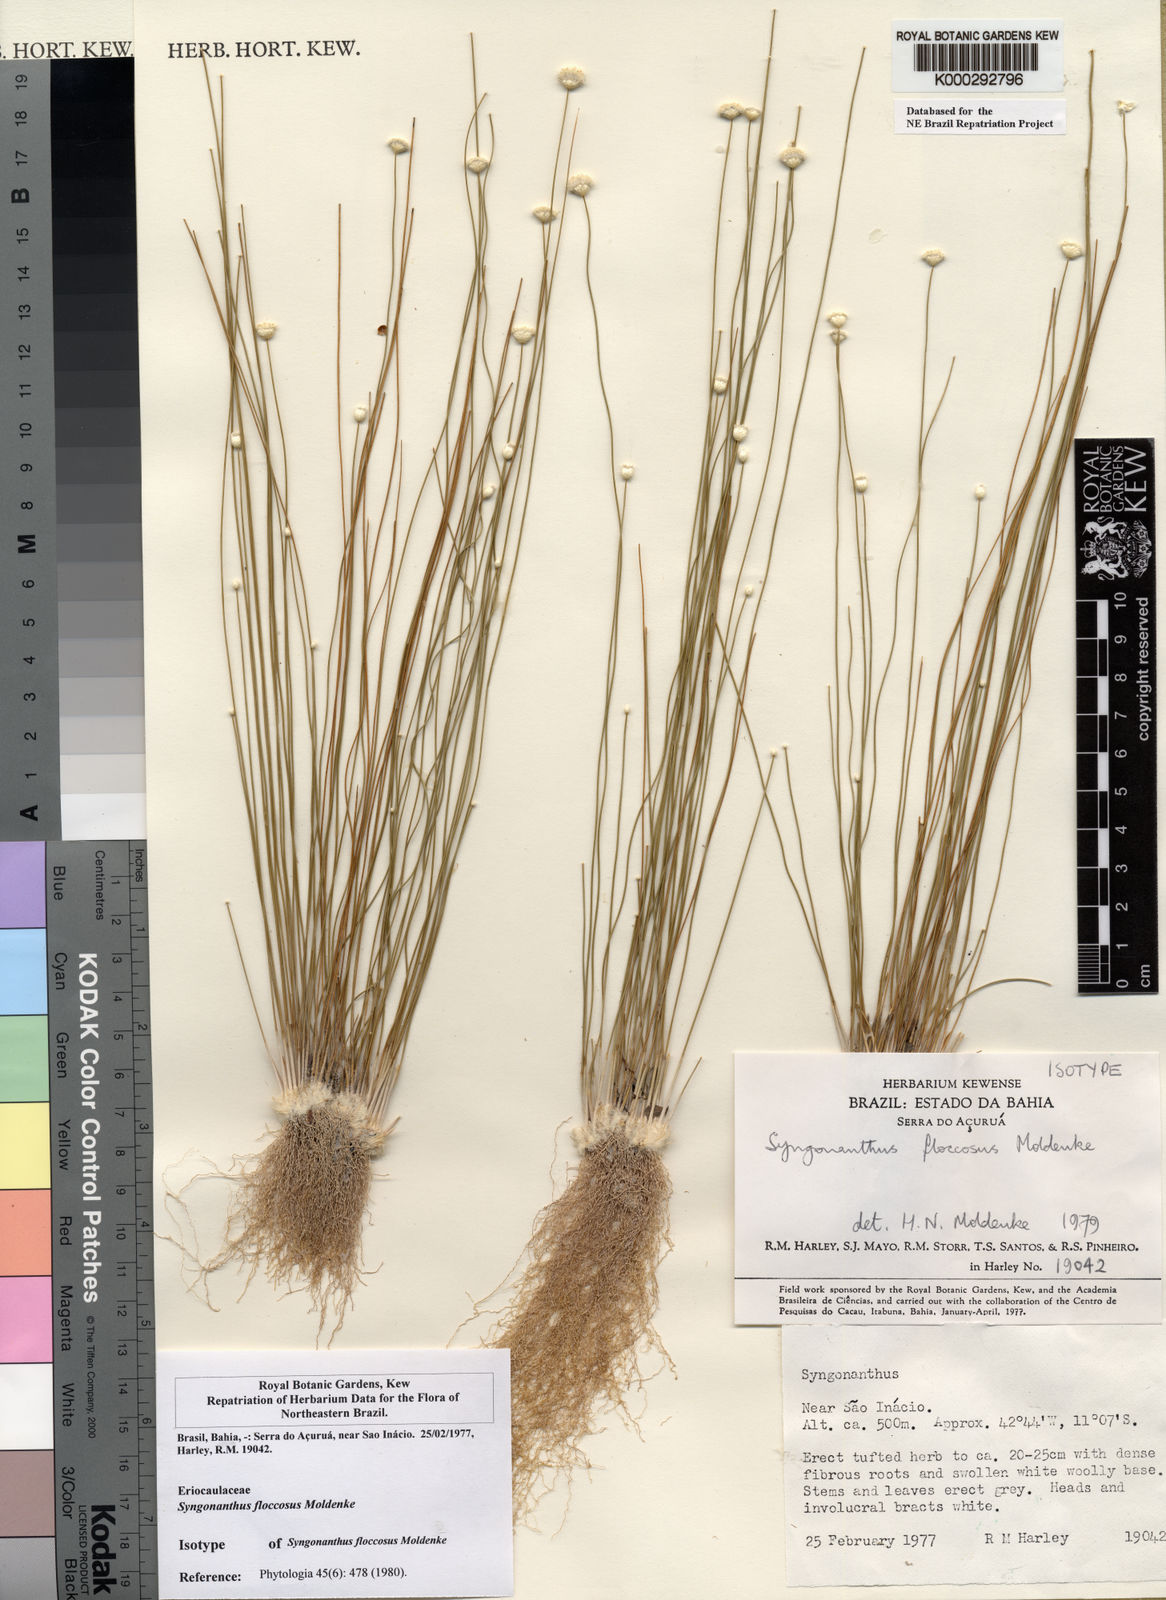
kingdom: Plantae
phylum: Tracheophyta
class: Liliopsida
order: Poales
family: Eriocaulaceae
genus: Comanthera
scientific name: Comanthera floccosa
